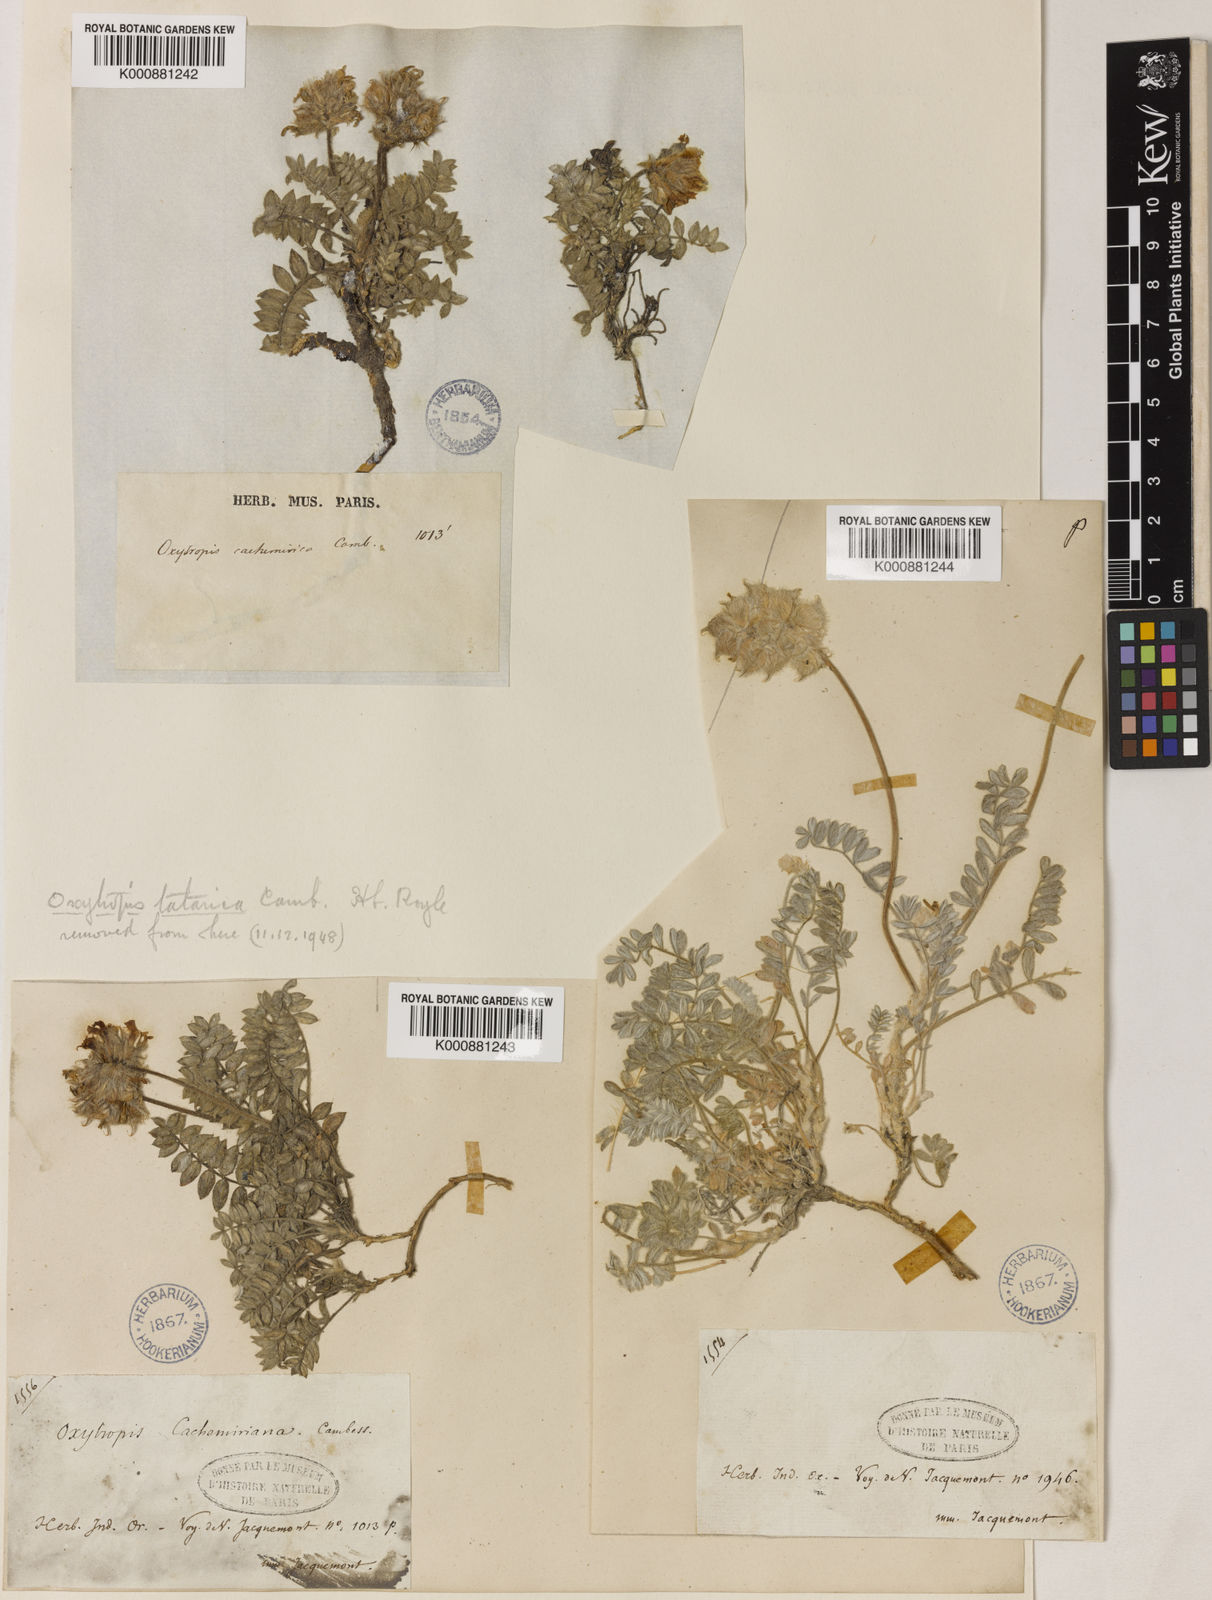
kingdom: Plantae
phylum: Tracheophyta
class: Magnoliopsida
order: Fabales
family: Fabaceae
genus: Oxytropis
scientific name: Oxytropis cachemiriana
